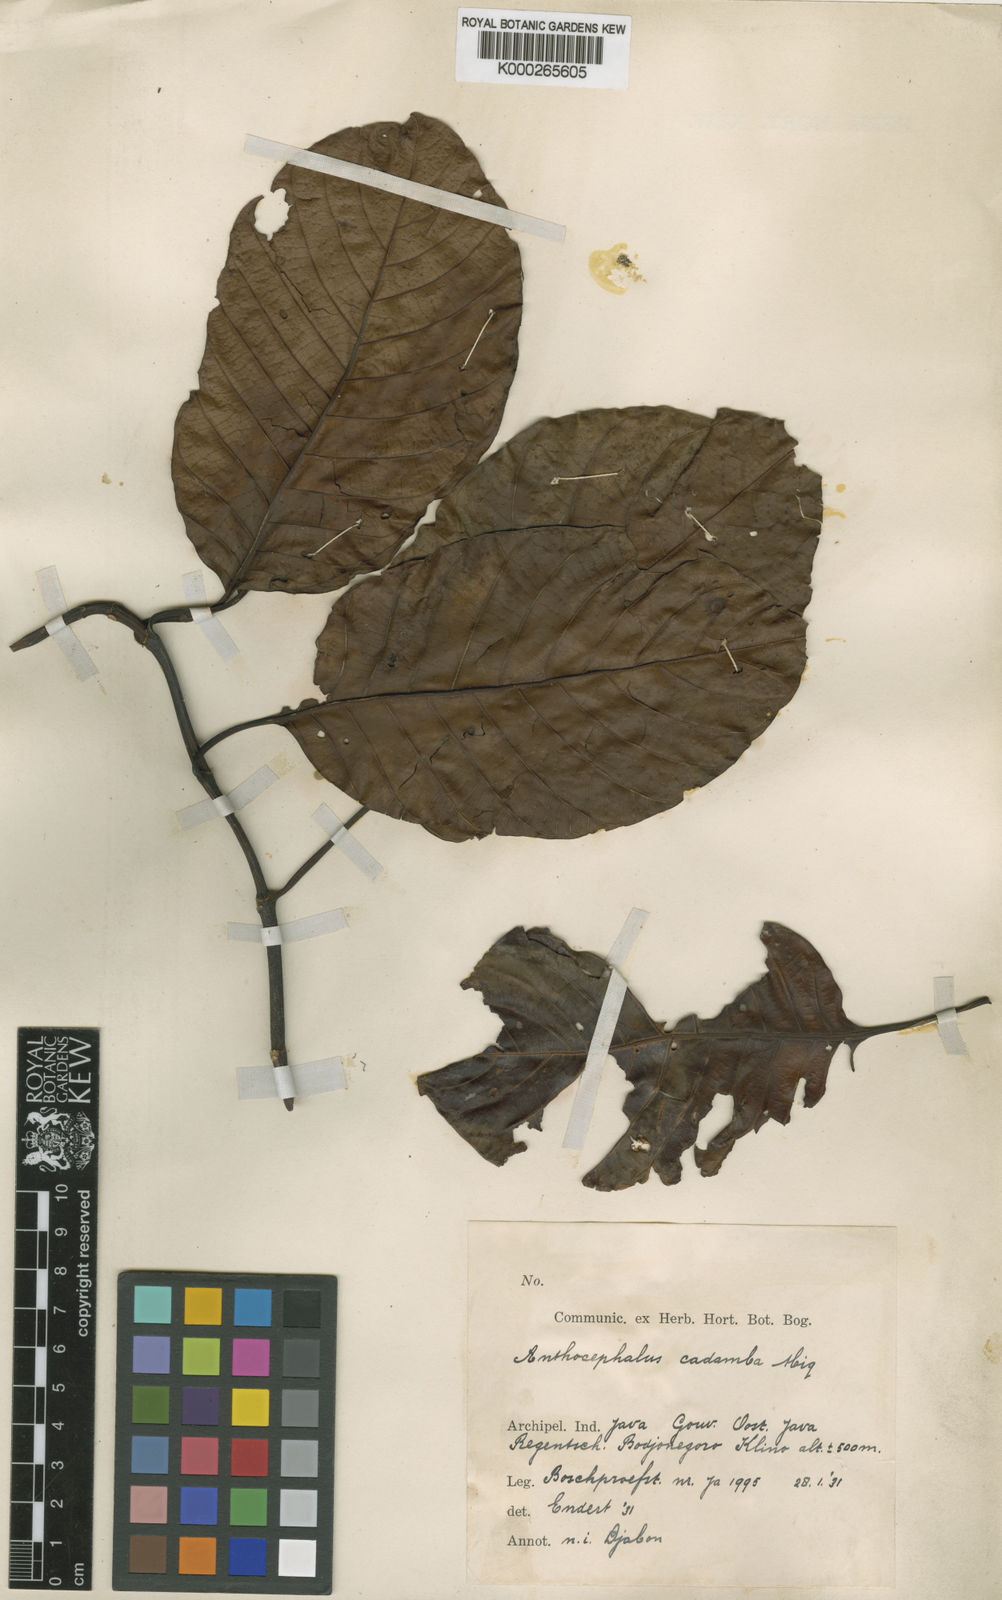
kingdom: Plantae
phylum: Tracheophyta
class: Magnoliopsida
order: Gentianales
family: Rubiaceae
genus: Neolamarckia
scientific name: Neolamarckia cadamba
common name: Leichhardt-pine
